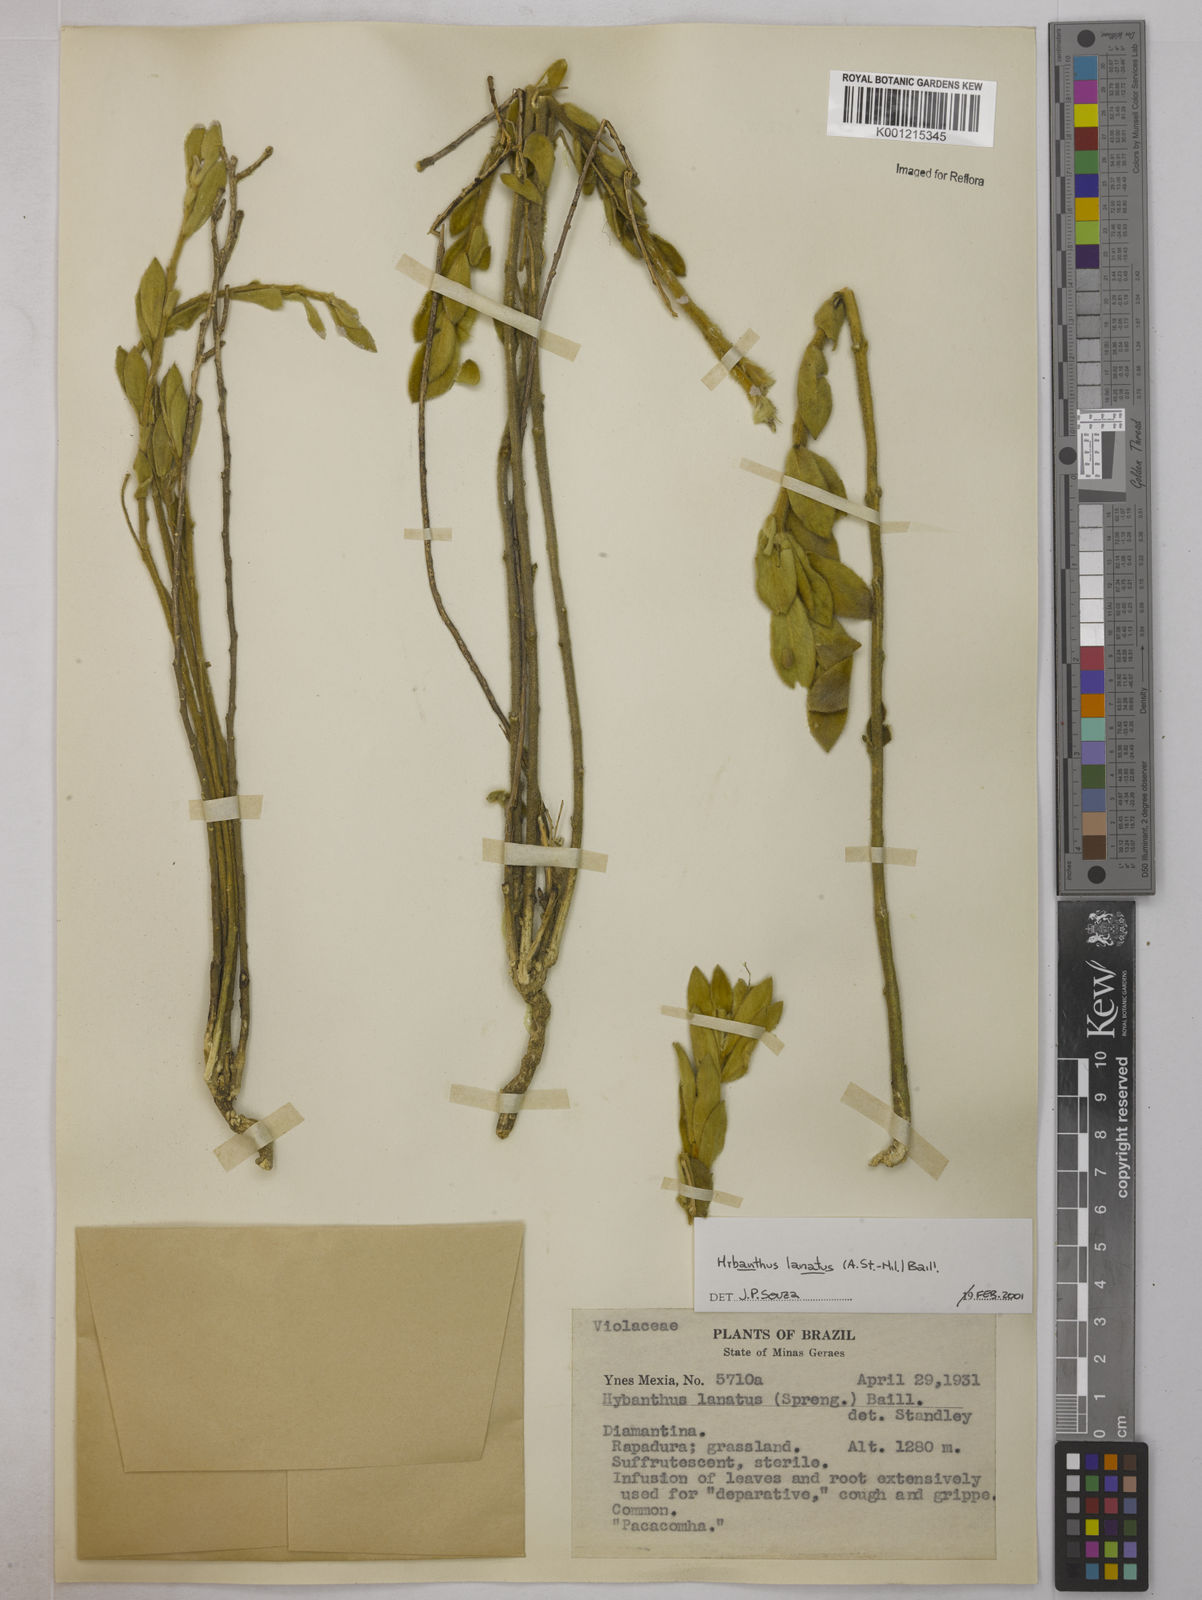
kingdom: Plantae
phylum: Tracheophyta
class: Magnoliopsida
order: Malpighiales
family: Violaceae
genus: Pombalia
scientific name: Pombalia lanata
